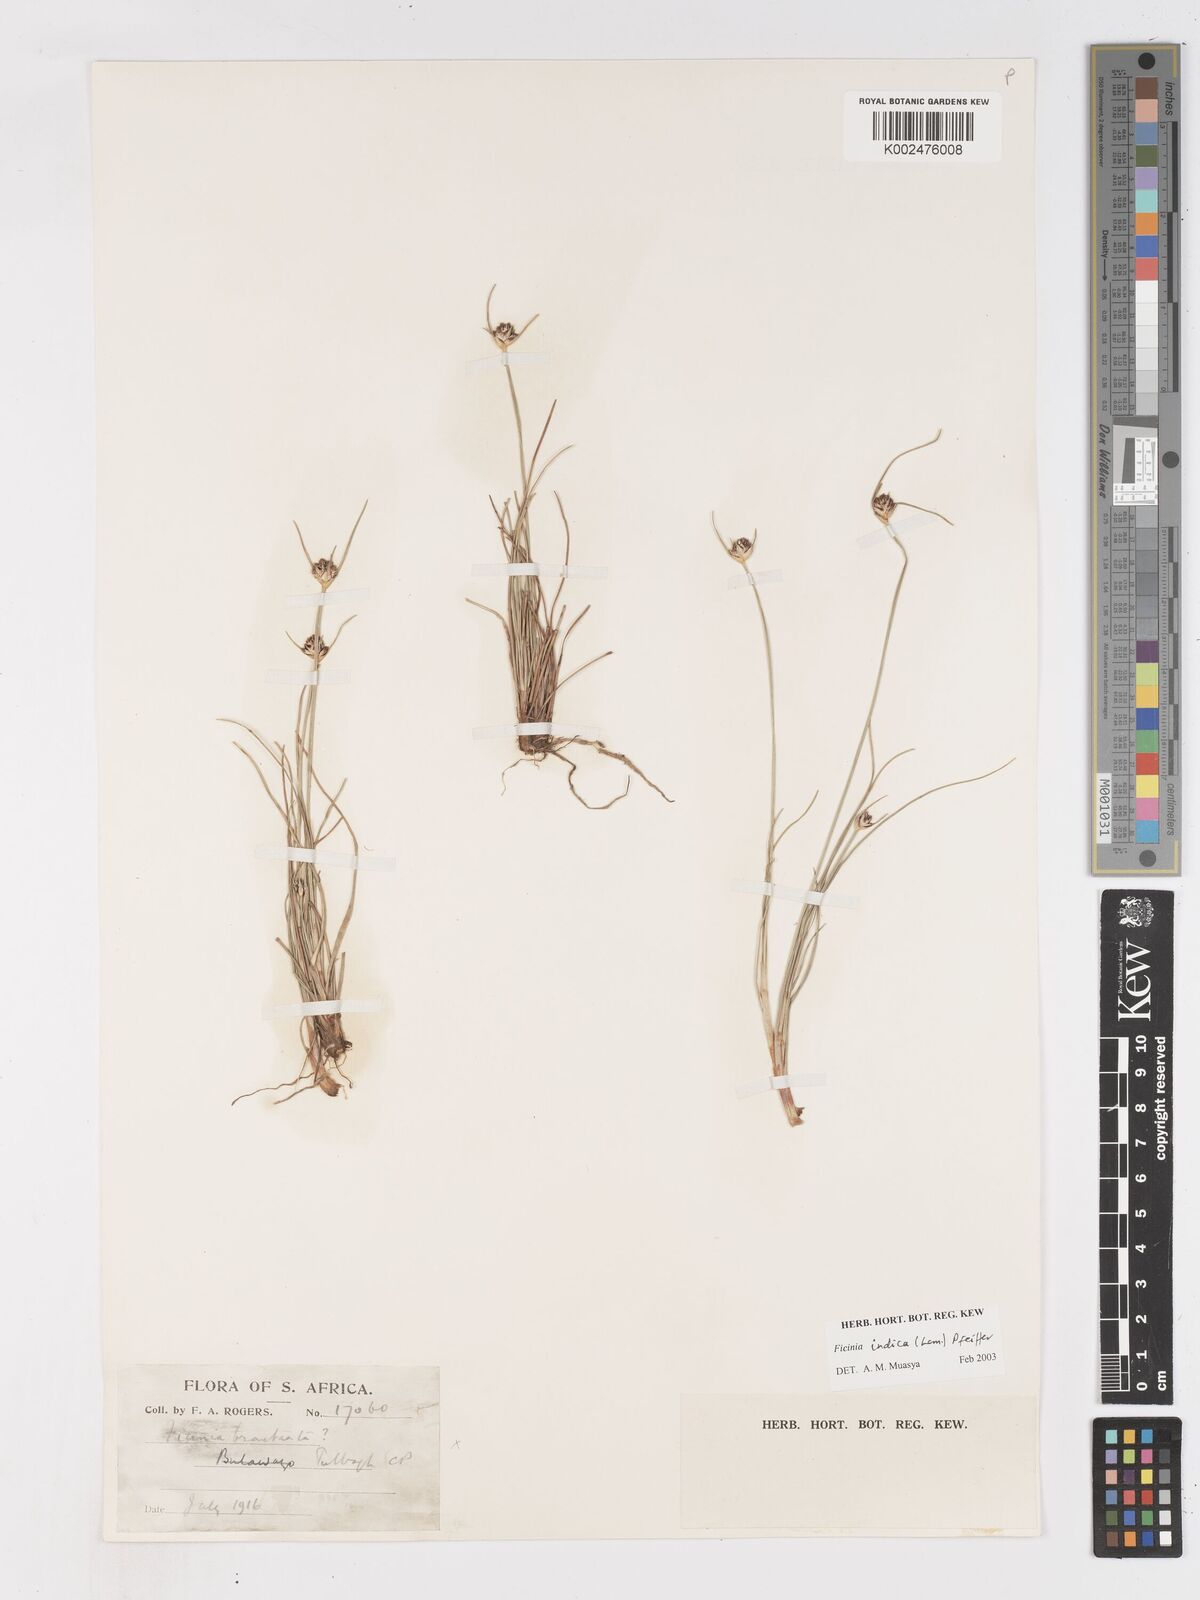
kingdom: Plantae
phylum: Tracheophyta
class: Liliopsida
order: Poales
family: Cyperaceae
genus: Ficinia
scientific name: Ficinia indica
